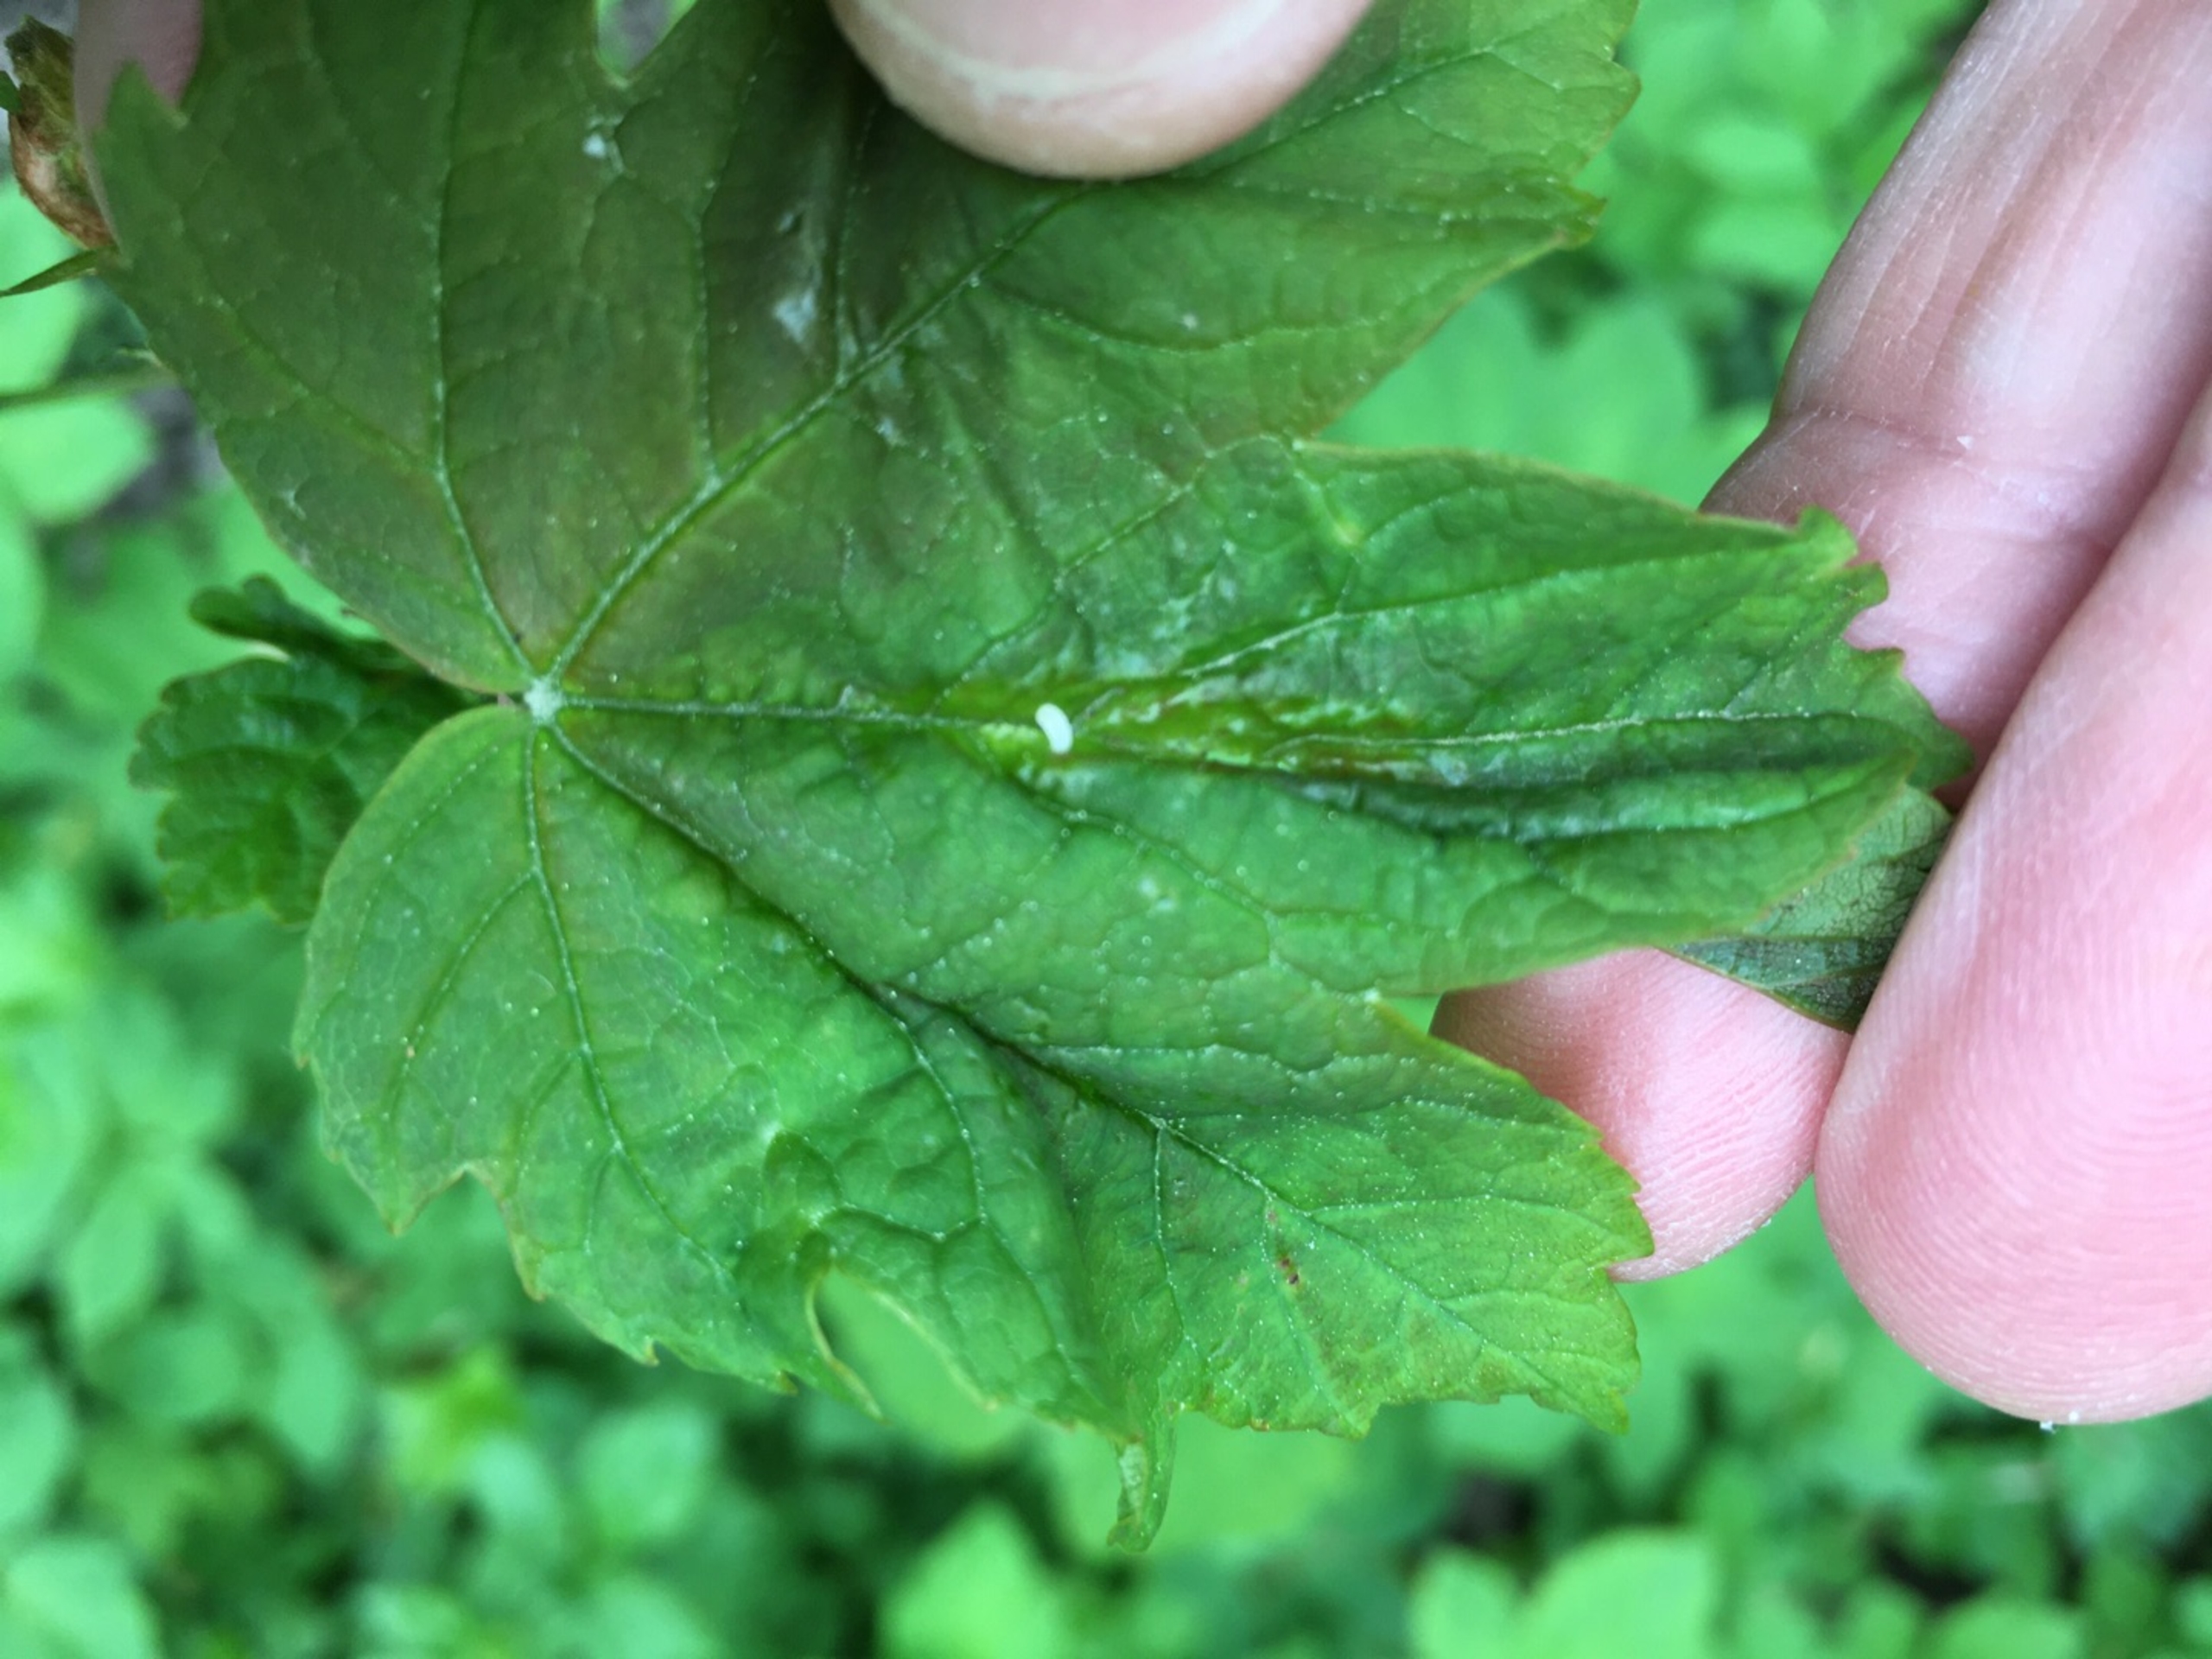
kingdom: Animalia
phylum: Arthropoda
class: Insecta
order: Diptera
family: Cecidomyiidae
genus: Dasineura
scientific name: Dasineura irregularis
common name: Ahornkrusegalmyg
